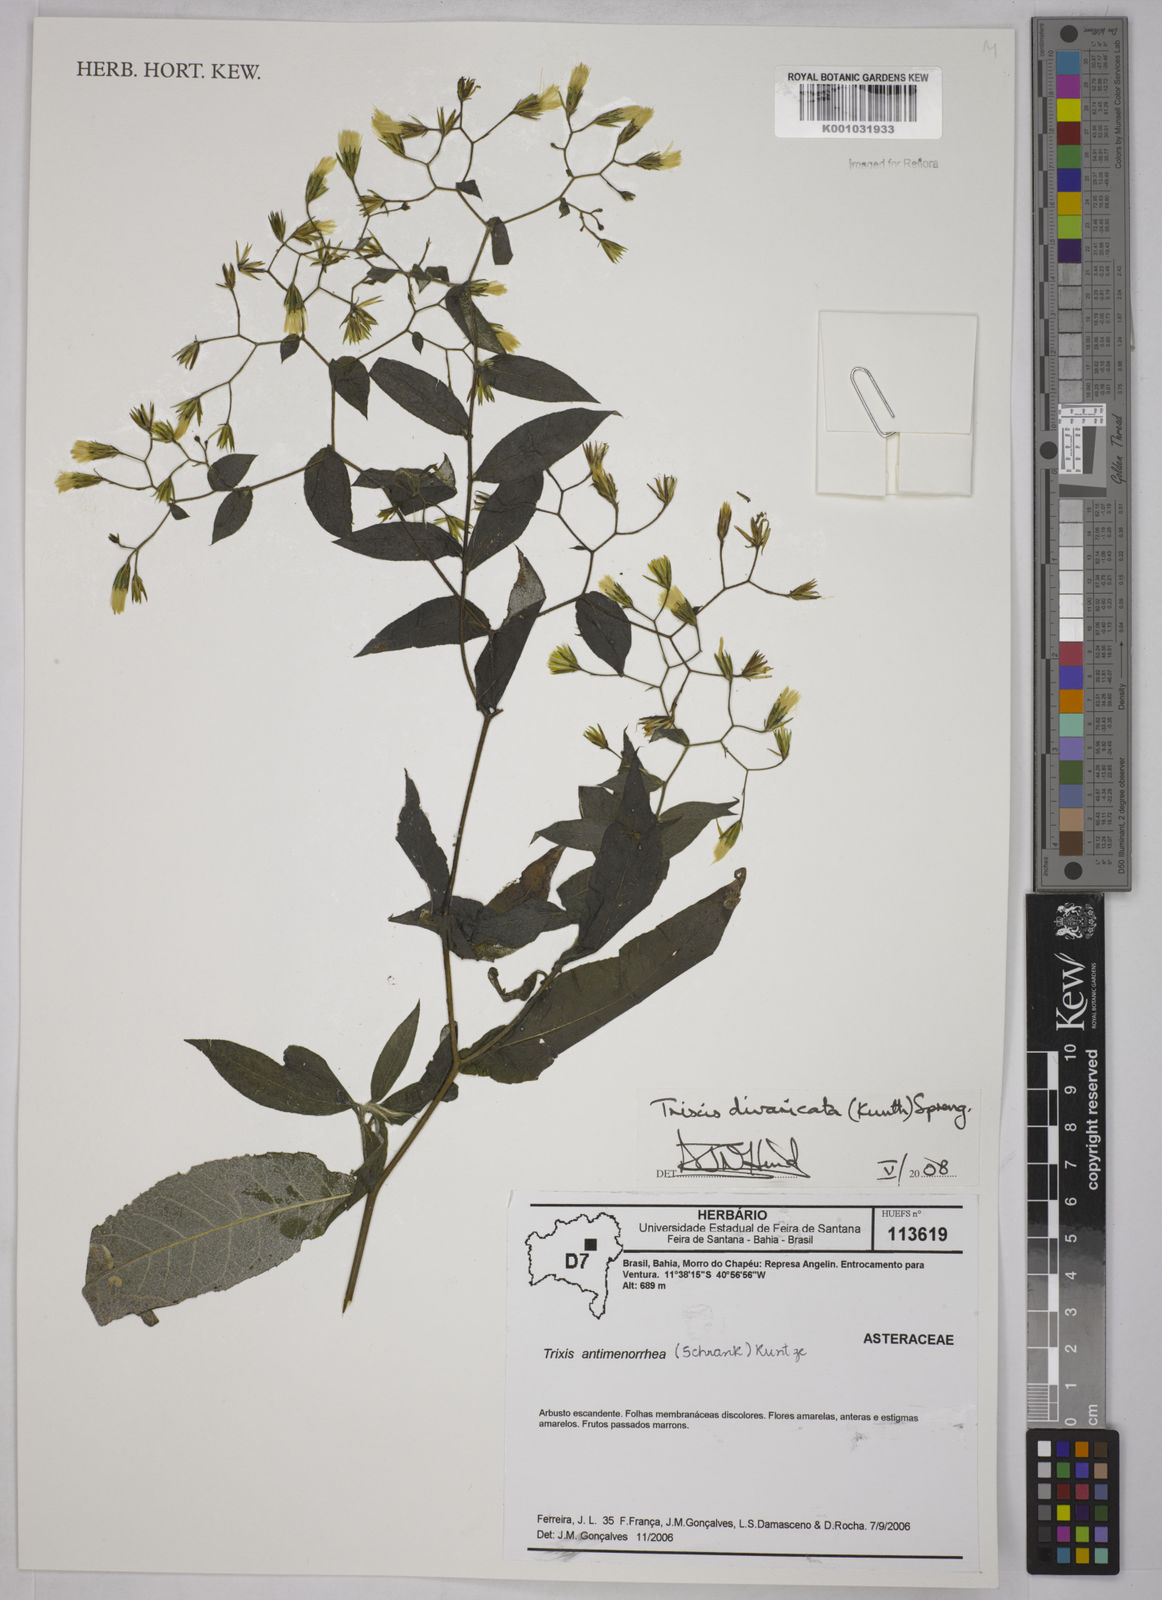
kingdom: Plantae
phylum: Tracheophyta
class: Magnoliopsida
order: Asterales
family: Asteraceae
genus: Trixis
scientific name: Trixis divaricata
